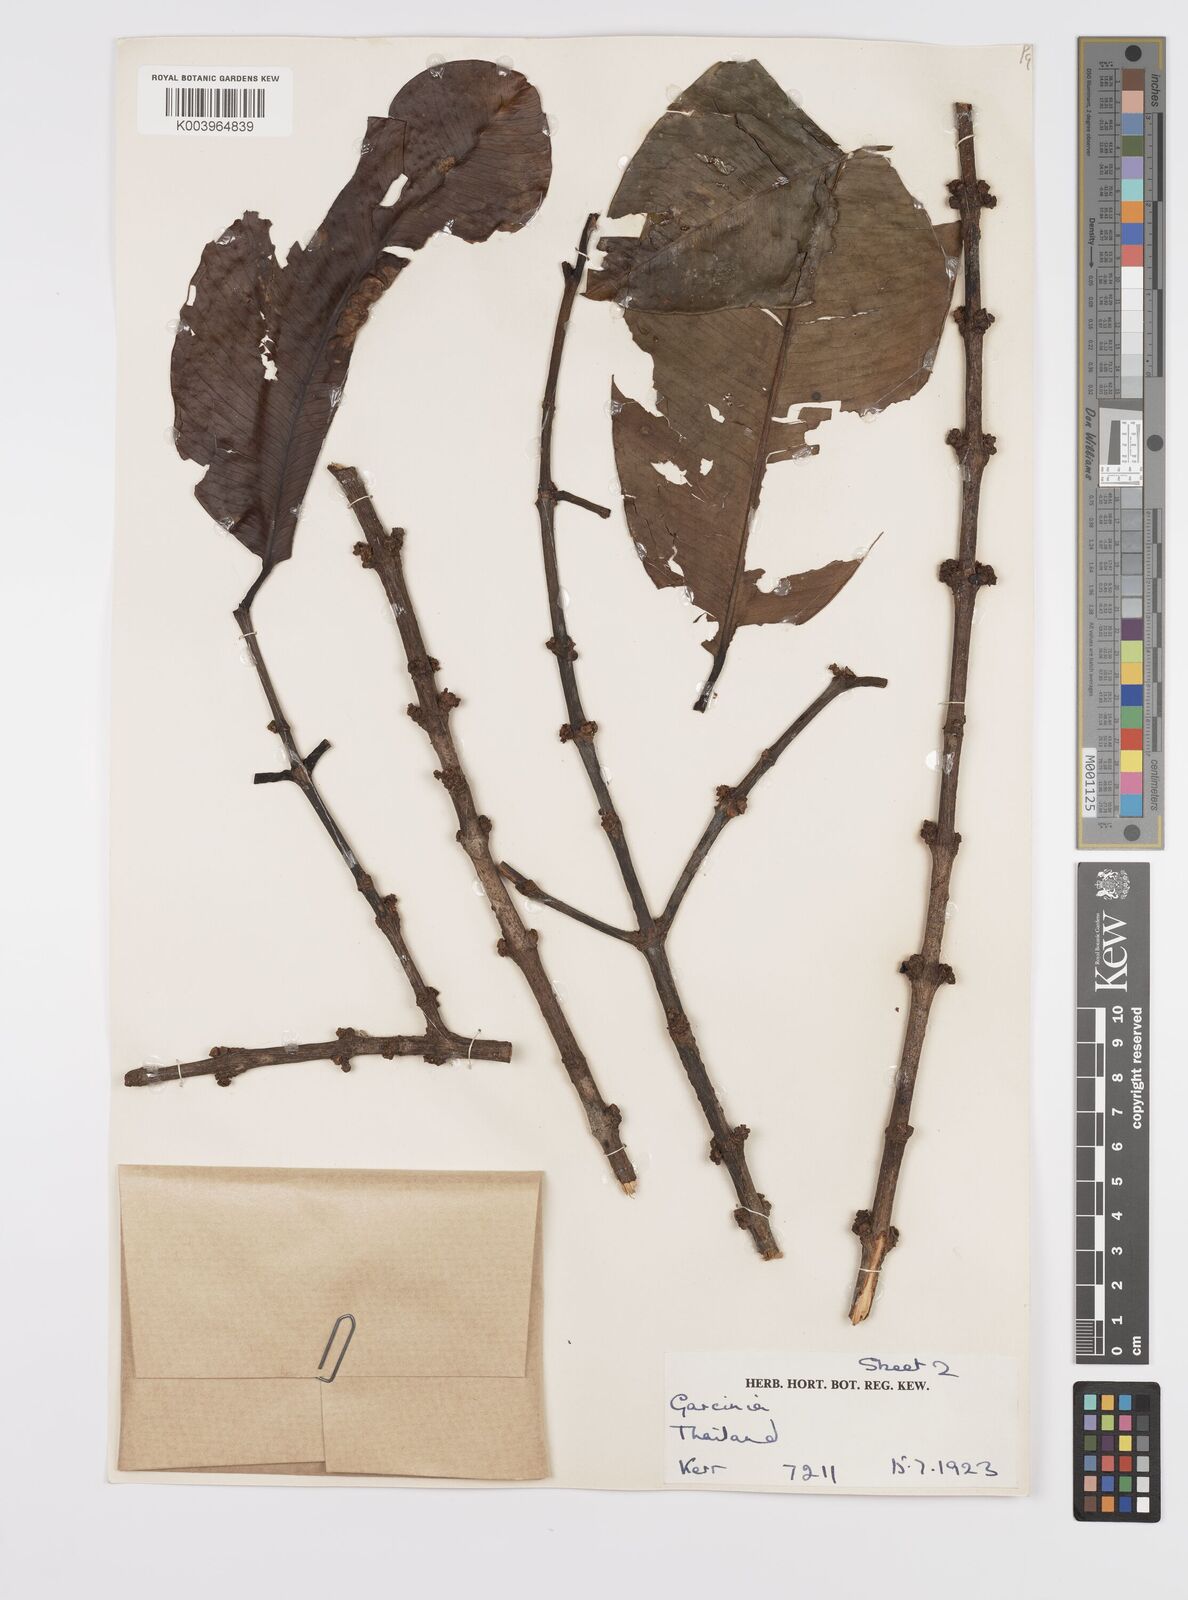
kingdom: Plantae
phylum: Tracheophyta
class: Magnoliopsida
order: Malpighiales
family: Clusiaceae
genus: Garcinia
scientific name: Garcinia
